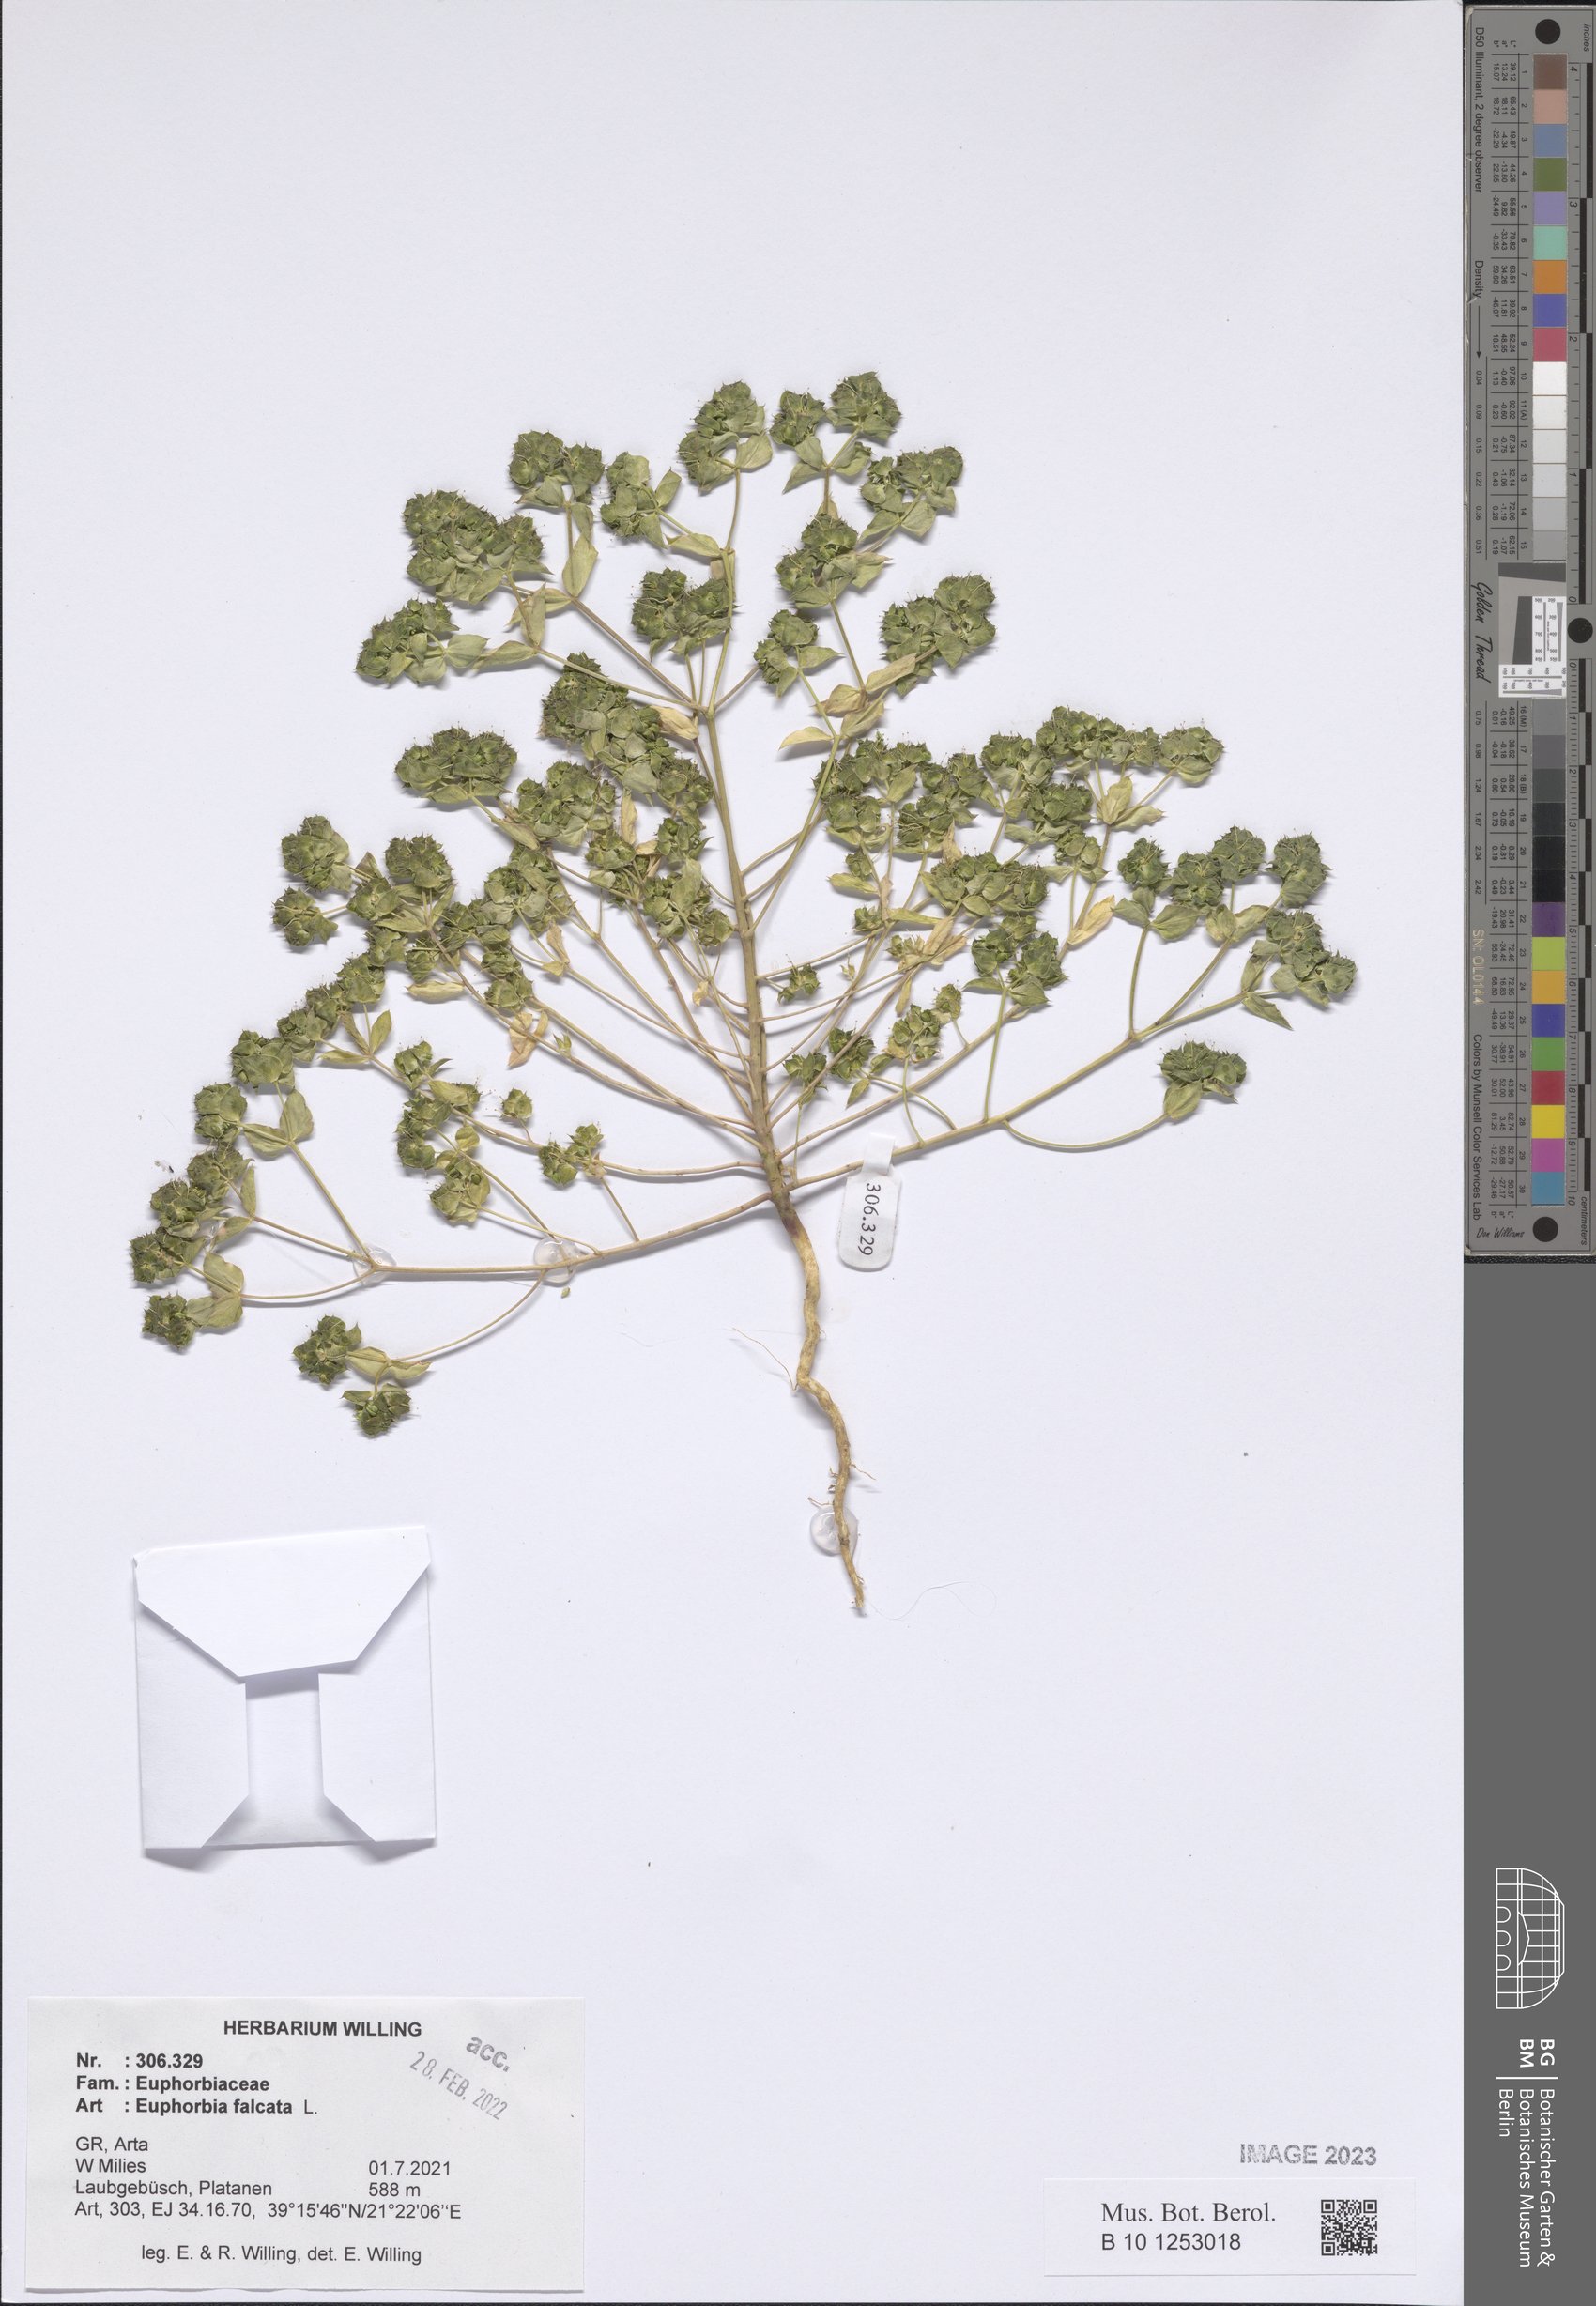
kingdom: Plantae
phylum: Tracheophyta
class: Magnoliopsida
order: Malpighiales
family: Euphorbiaceae
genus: Euphorbia
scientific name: Euphorbia falcata
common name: Sickle spurge
